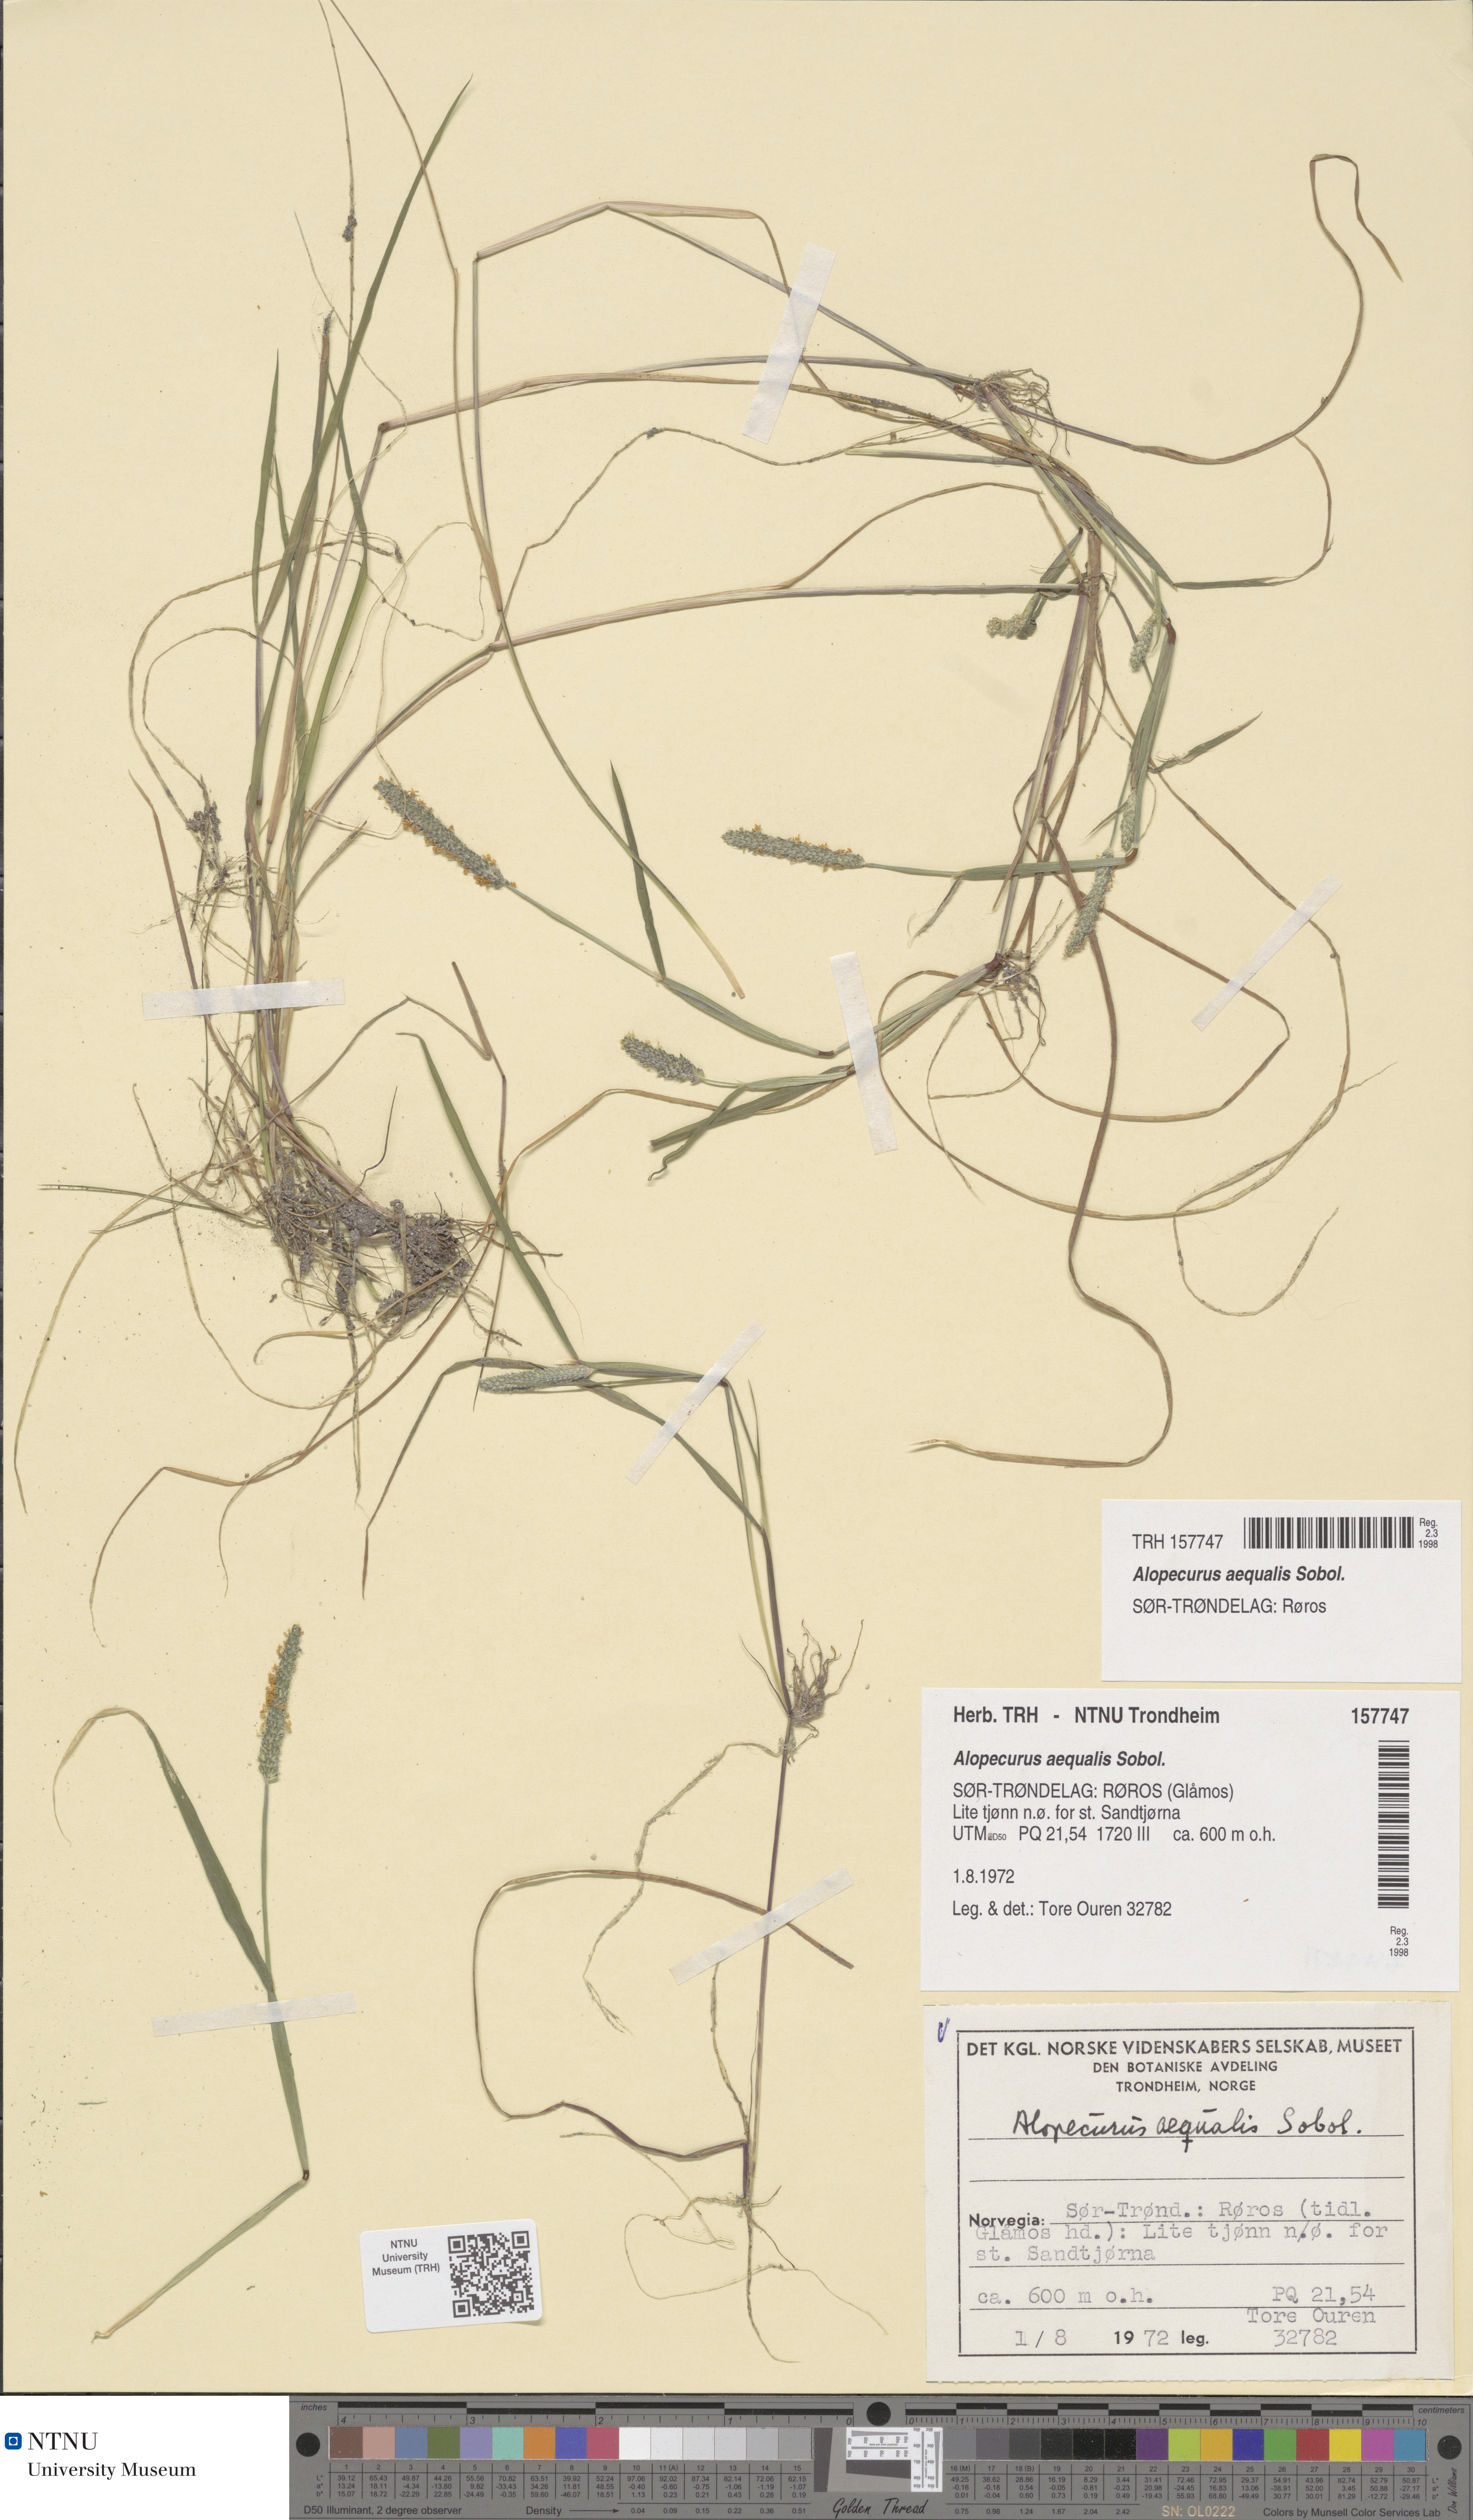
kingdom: Plantae
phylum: Tracheophyta
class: Liliopsida
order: Poales
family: Poaceae
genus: Alopecurus
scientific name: Alopecurus aequalis
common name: Orange foxtail
